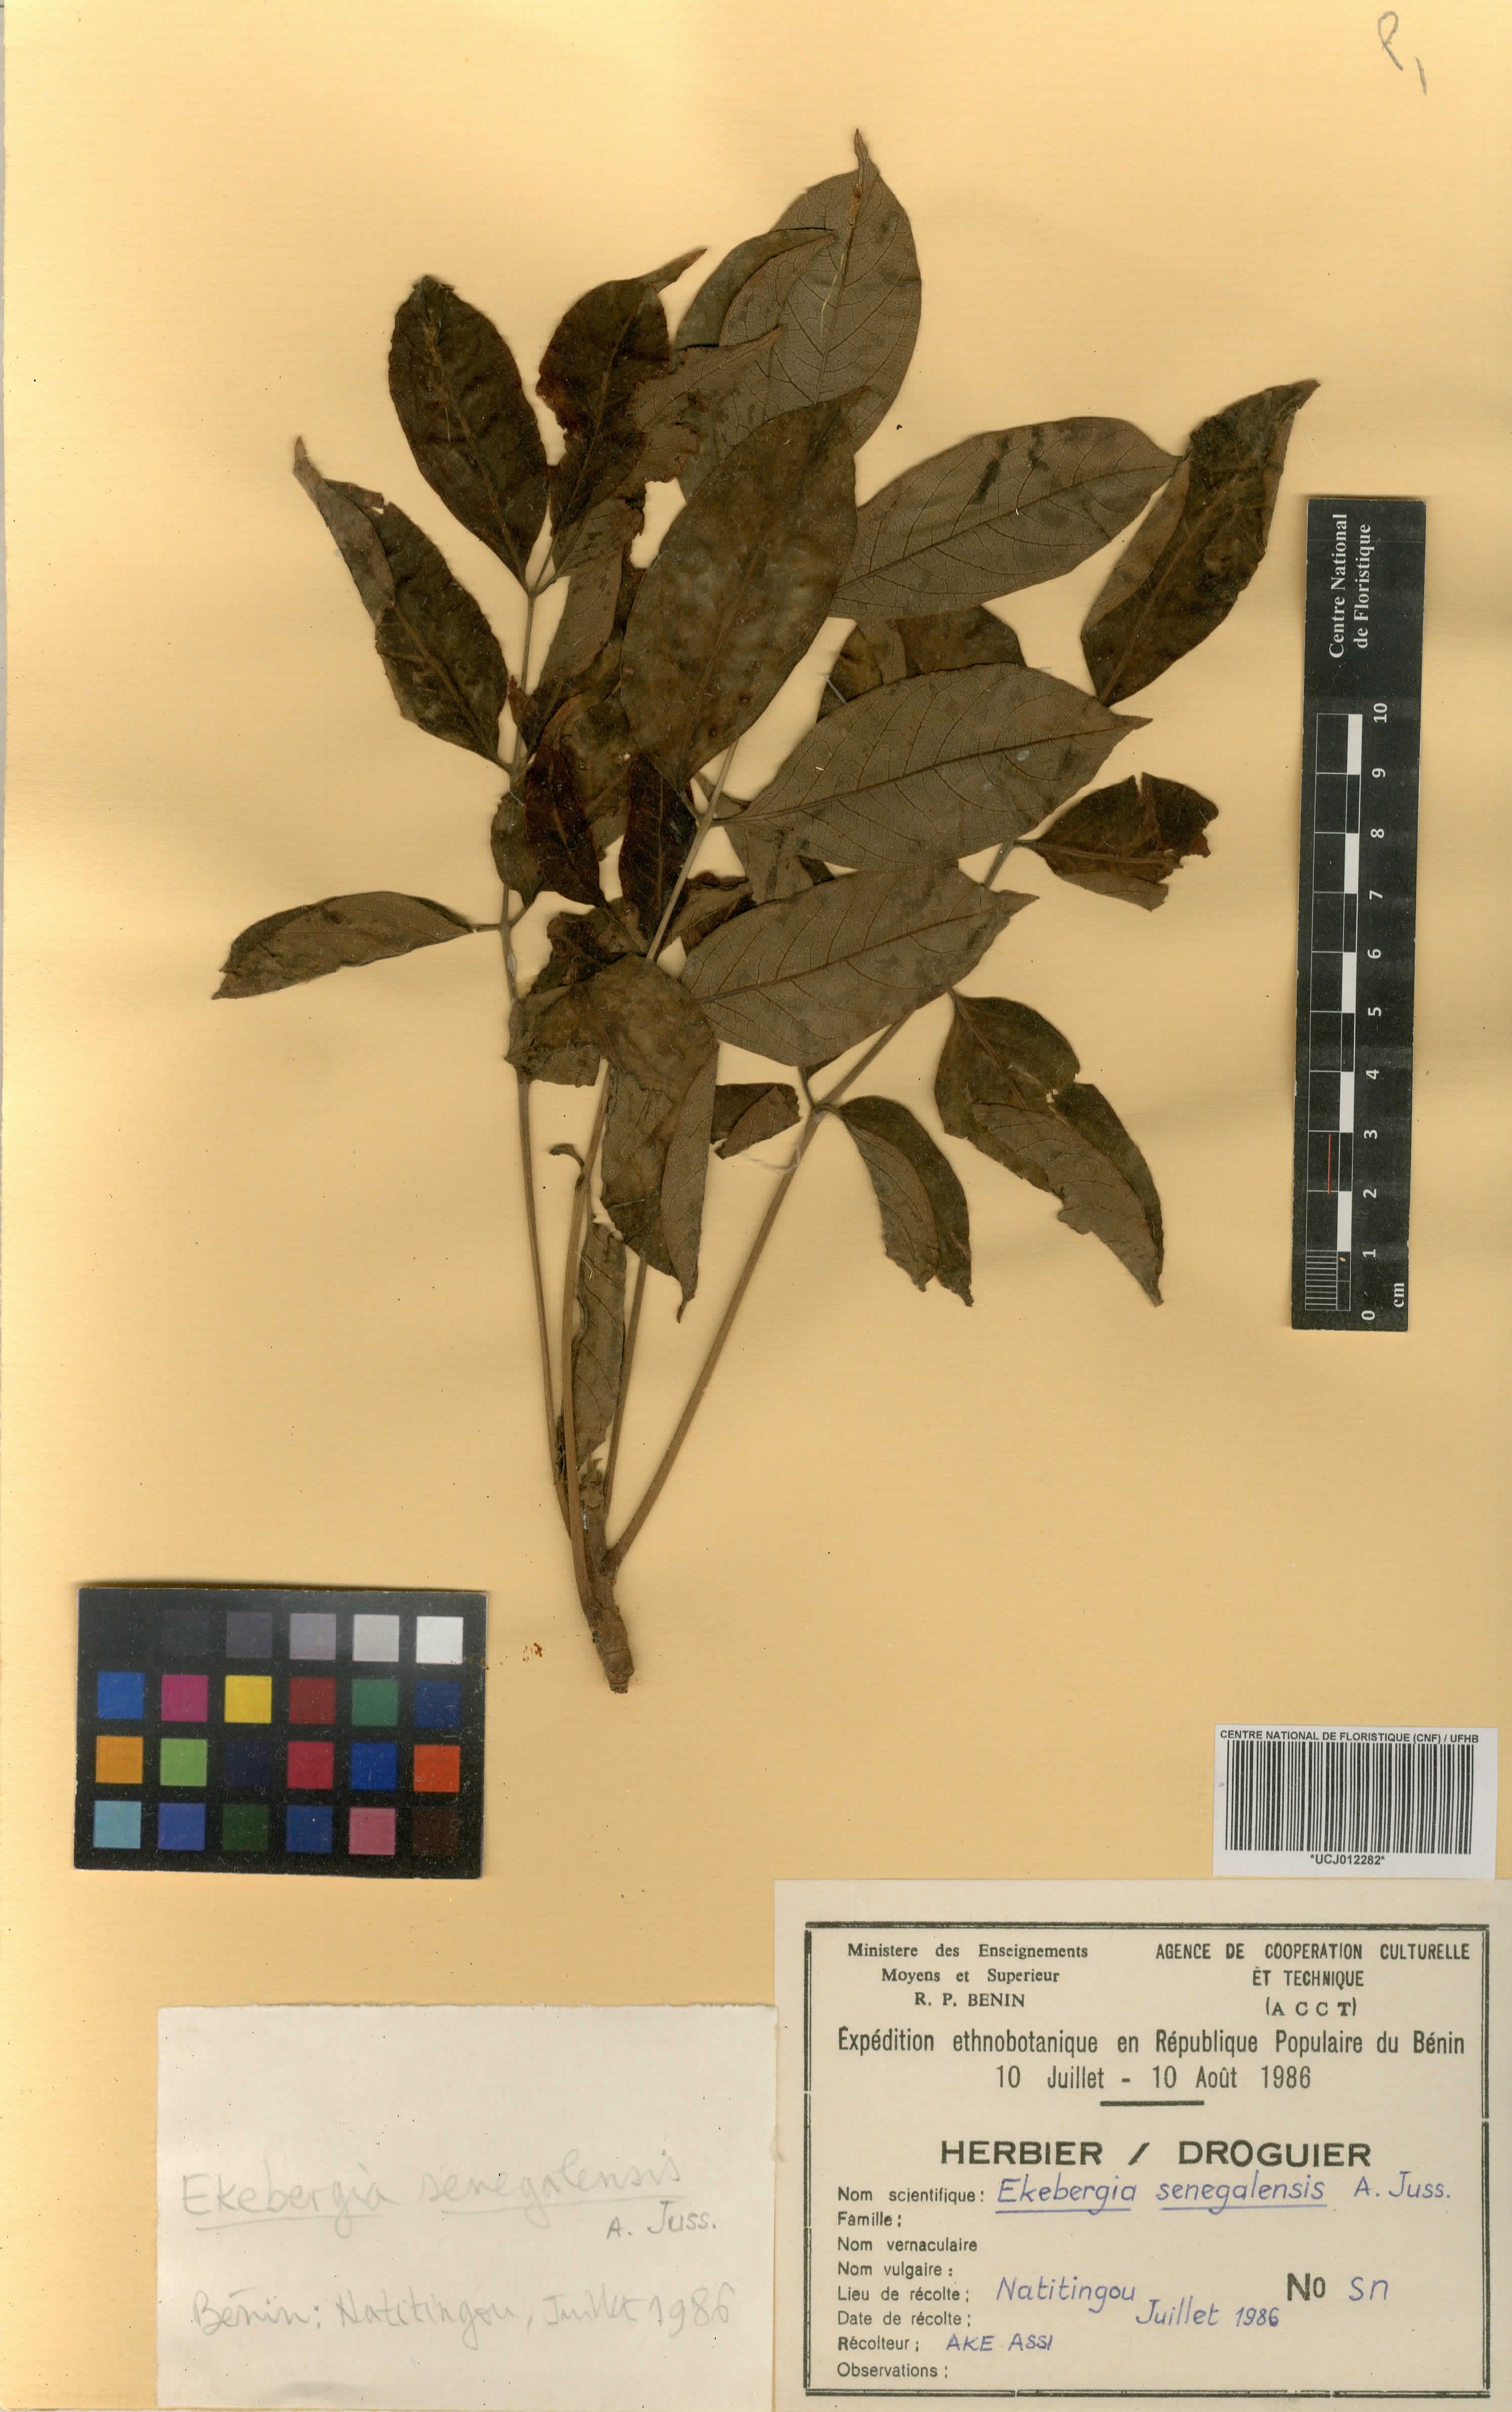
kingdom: Plantae
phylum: Tracheophyta
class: Magnoliopsida
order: Sapindales
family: Meliaceae
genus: Ekebergia
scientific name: Ekebergia capensis
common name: Cape-ash
